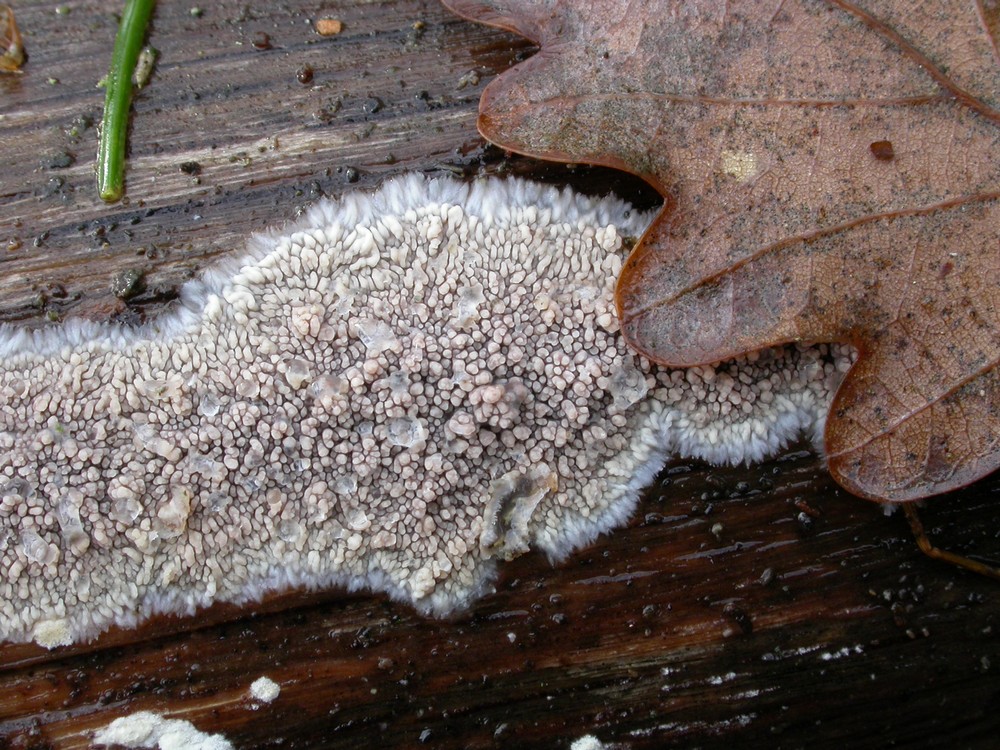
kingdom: Fungi
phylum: Basidiomycota
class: Agaricomycetes
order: Polyporales
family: Meruliaceae
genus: Phlebia
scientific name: Phlebia radiata
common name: stråle-åresvamp
